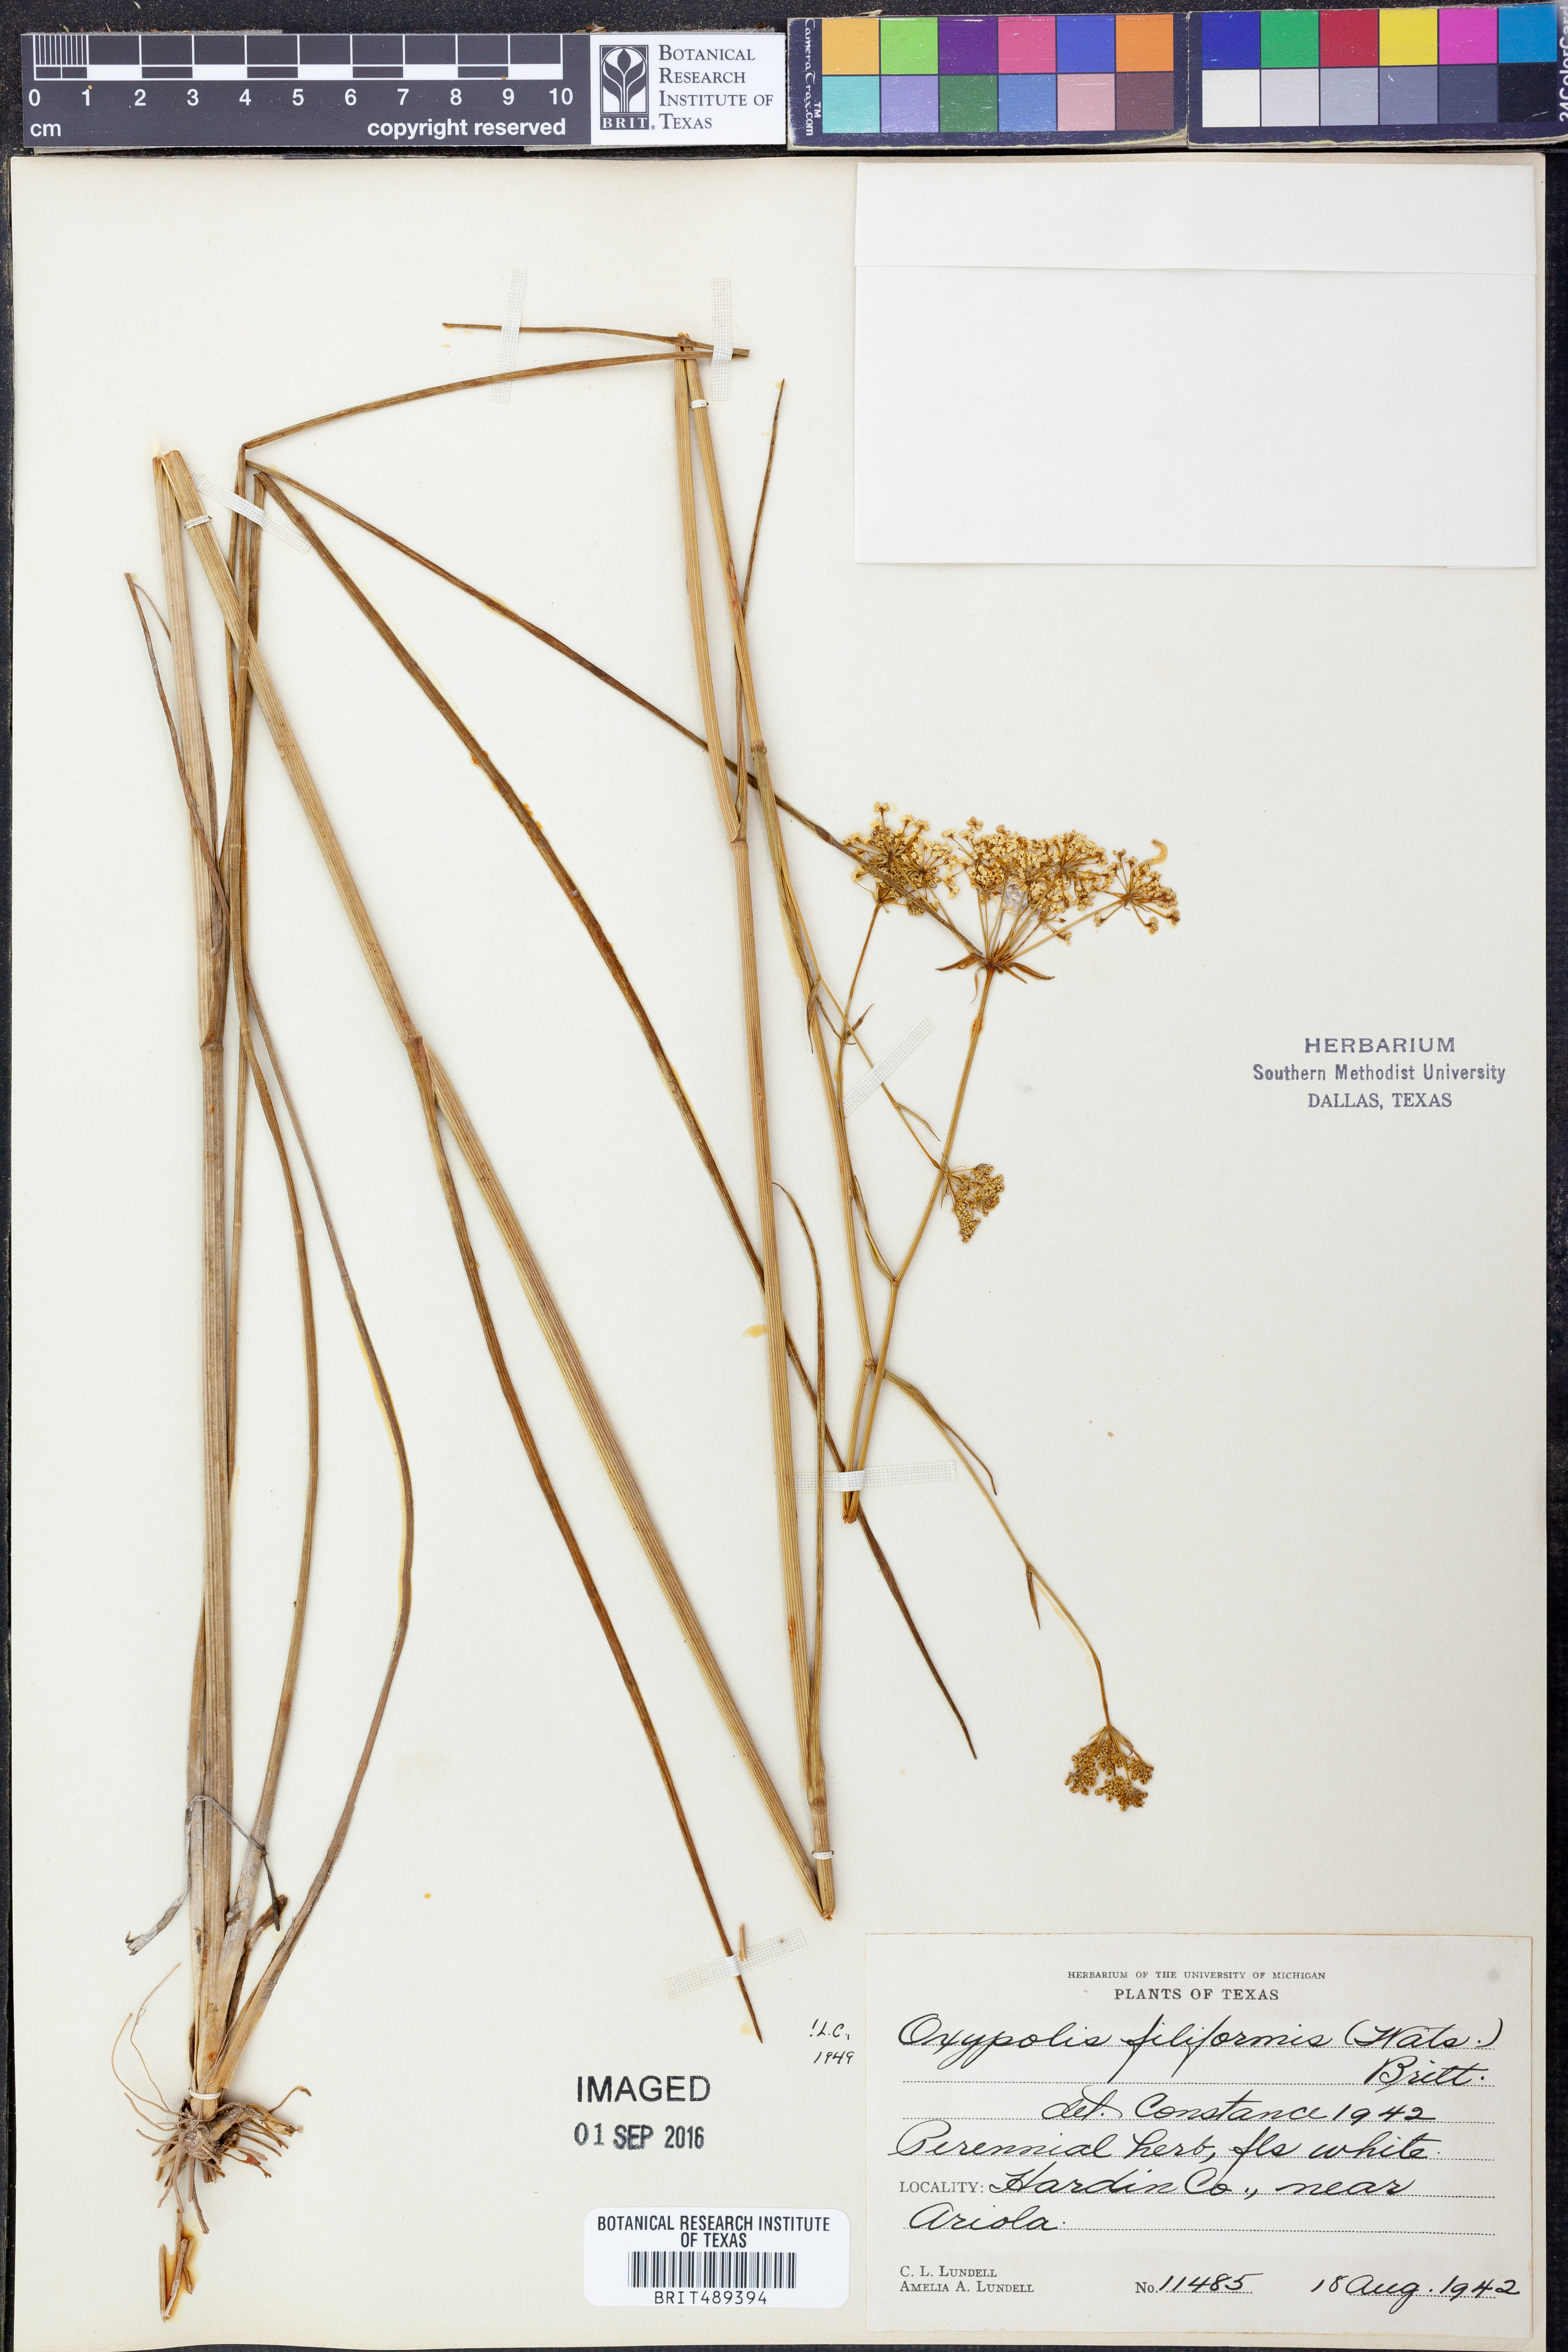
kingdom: Plantae
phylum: Tracheophyta
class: Magnoliopsida
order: Apiales
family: Apiaceae
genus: Tiedemannia
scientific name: Tiedemannia filiformis
